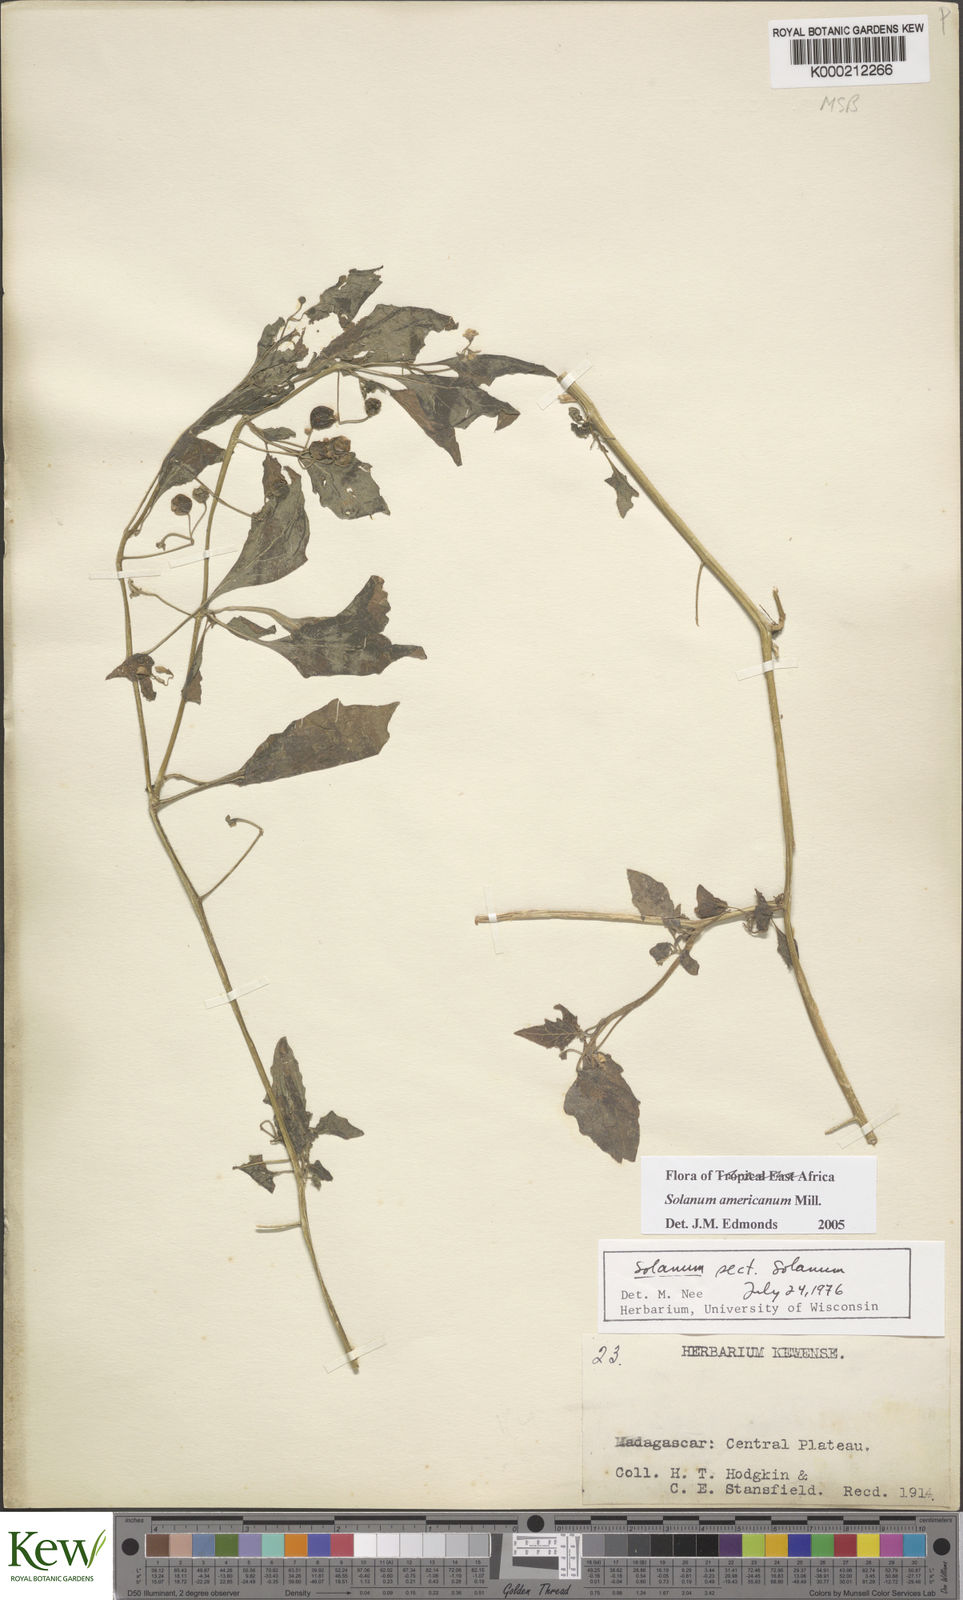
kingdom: Plantae
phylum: Tracheophyta
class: Magnoliopsida
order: Solanales
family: Solanaceae
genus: Solanum
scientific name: Solanum americanum
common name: American black nightshade
